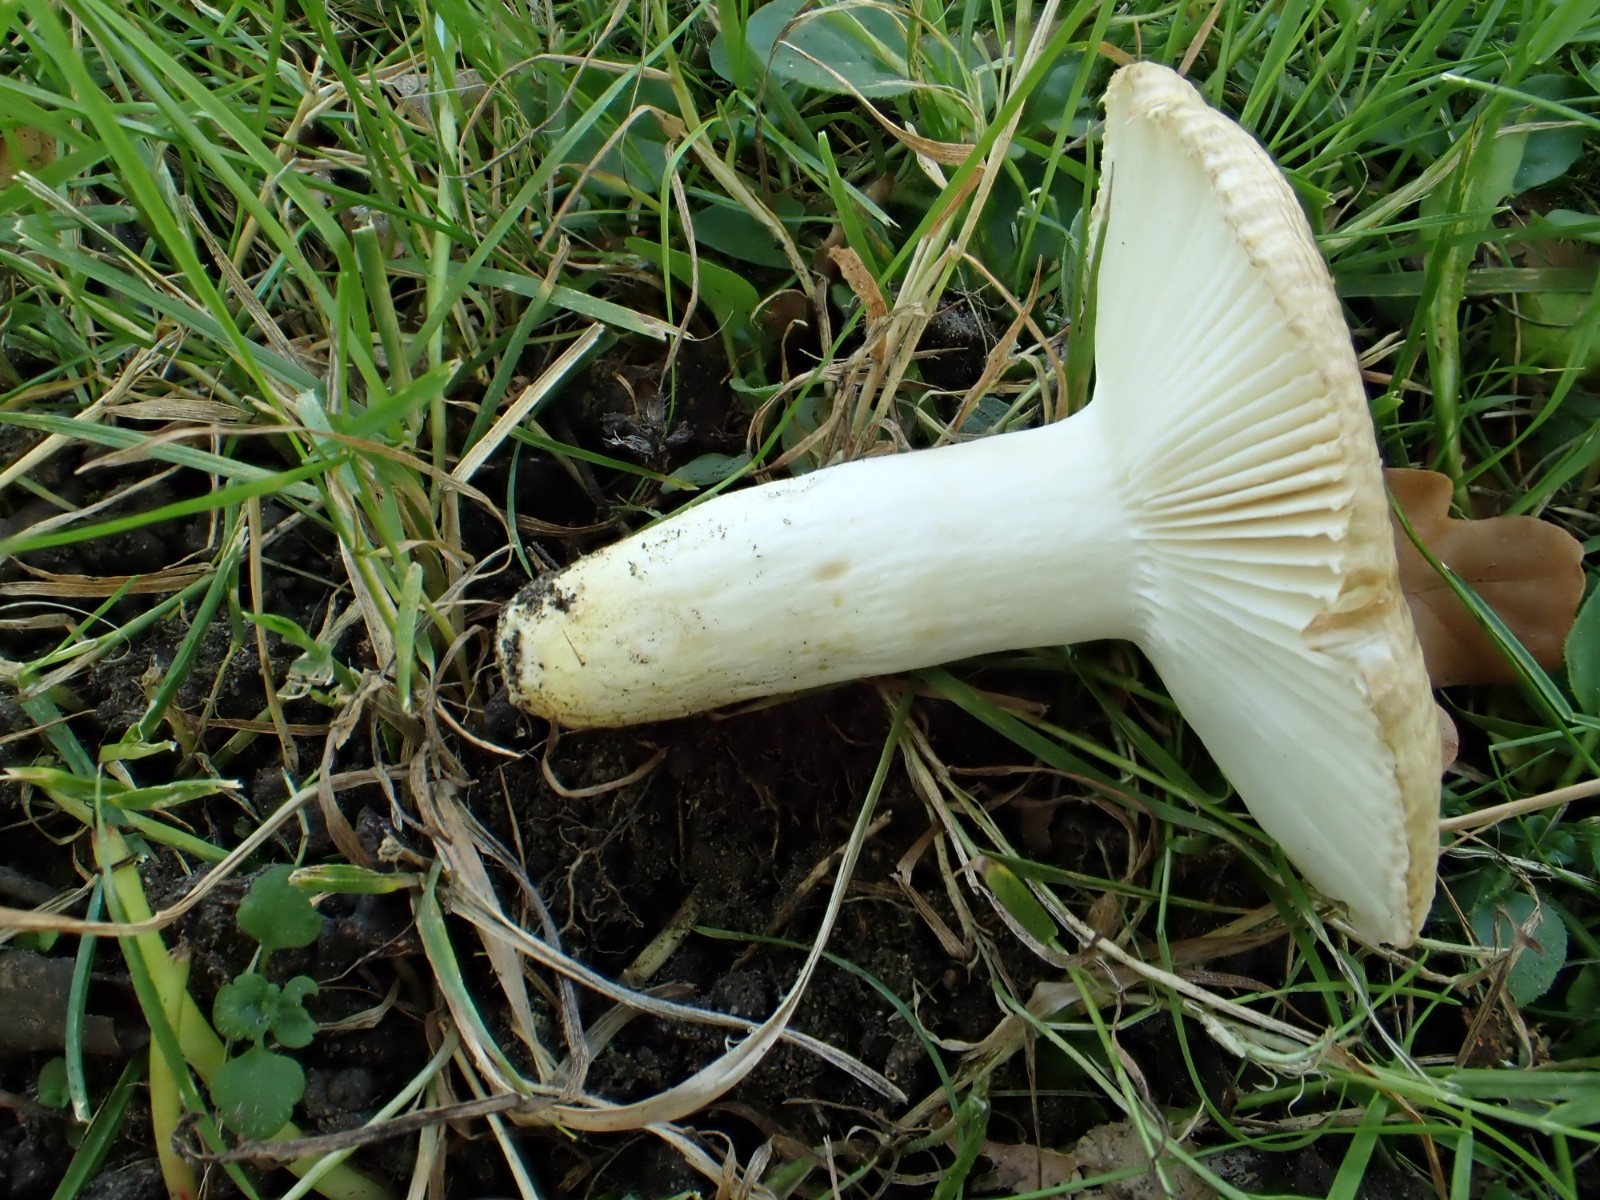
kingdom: Fungi
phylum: Basidiomycota
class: Agaricomycetes
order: Russulales
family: Russulaceae
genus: Russula
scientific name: Russula insignis
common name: gulfodet kam-skørhat
